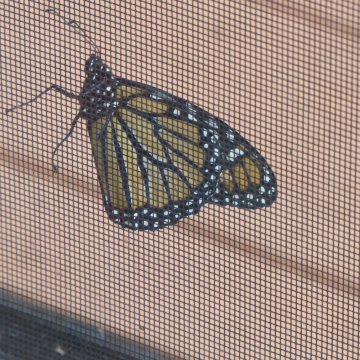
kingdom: Animalia
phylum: Arthropoda
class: Insecta
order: Lepidoptera
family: Nymphalidae
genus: Danaus
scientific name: Danaus plexippus
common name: Monarch
